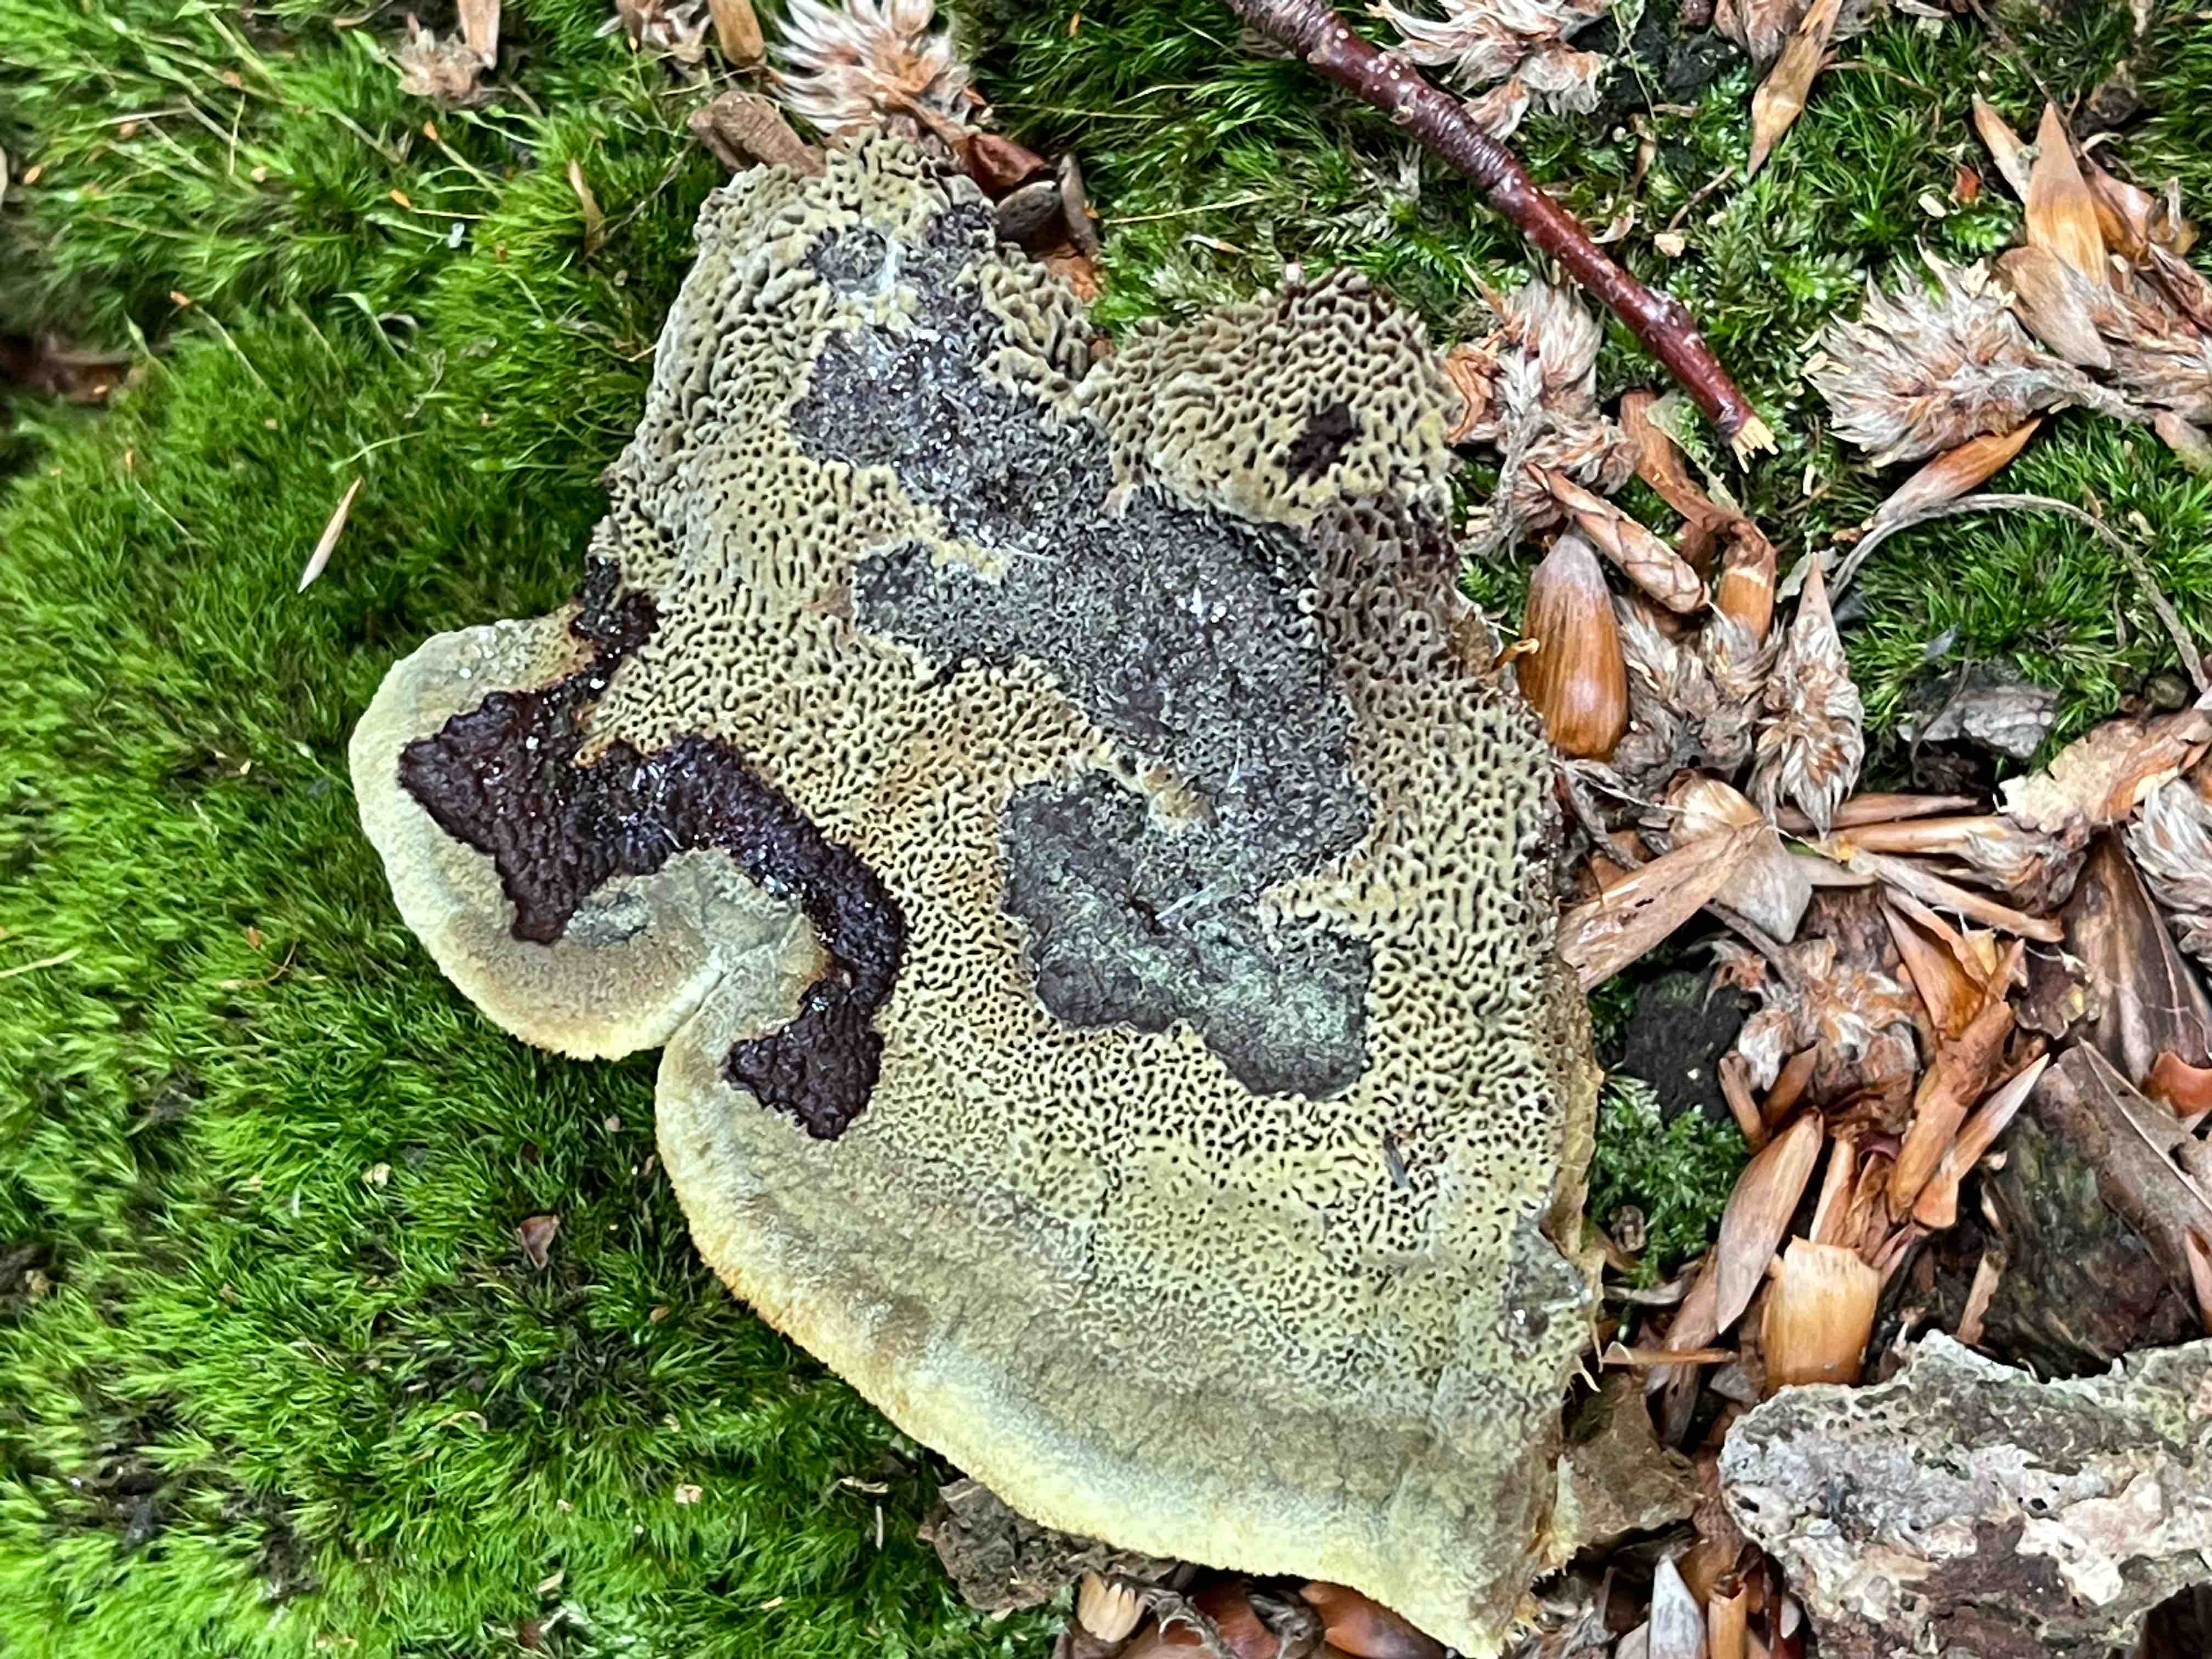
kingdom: Fungi
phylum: Basidiomycota
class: Agaricomycetes
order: Polyporales
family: Laetiporaceae
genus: Phaeolus
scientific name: Phaeolus schweinitzii
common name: brunporesvamp
